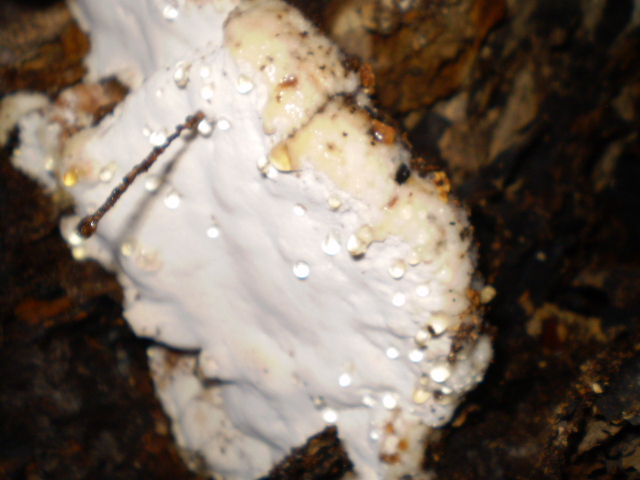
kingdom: Fungi
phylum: Basidiomycota
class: Agaricomycetes
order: Polyporales
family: Meruliaceae
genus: Pappia
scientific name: Pappia fissilis
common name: rosa fedtporesvamp
